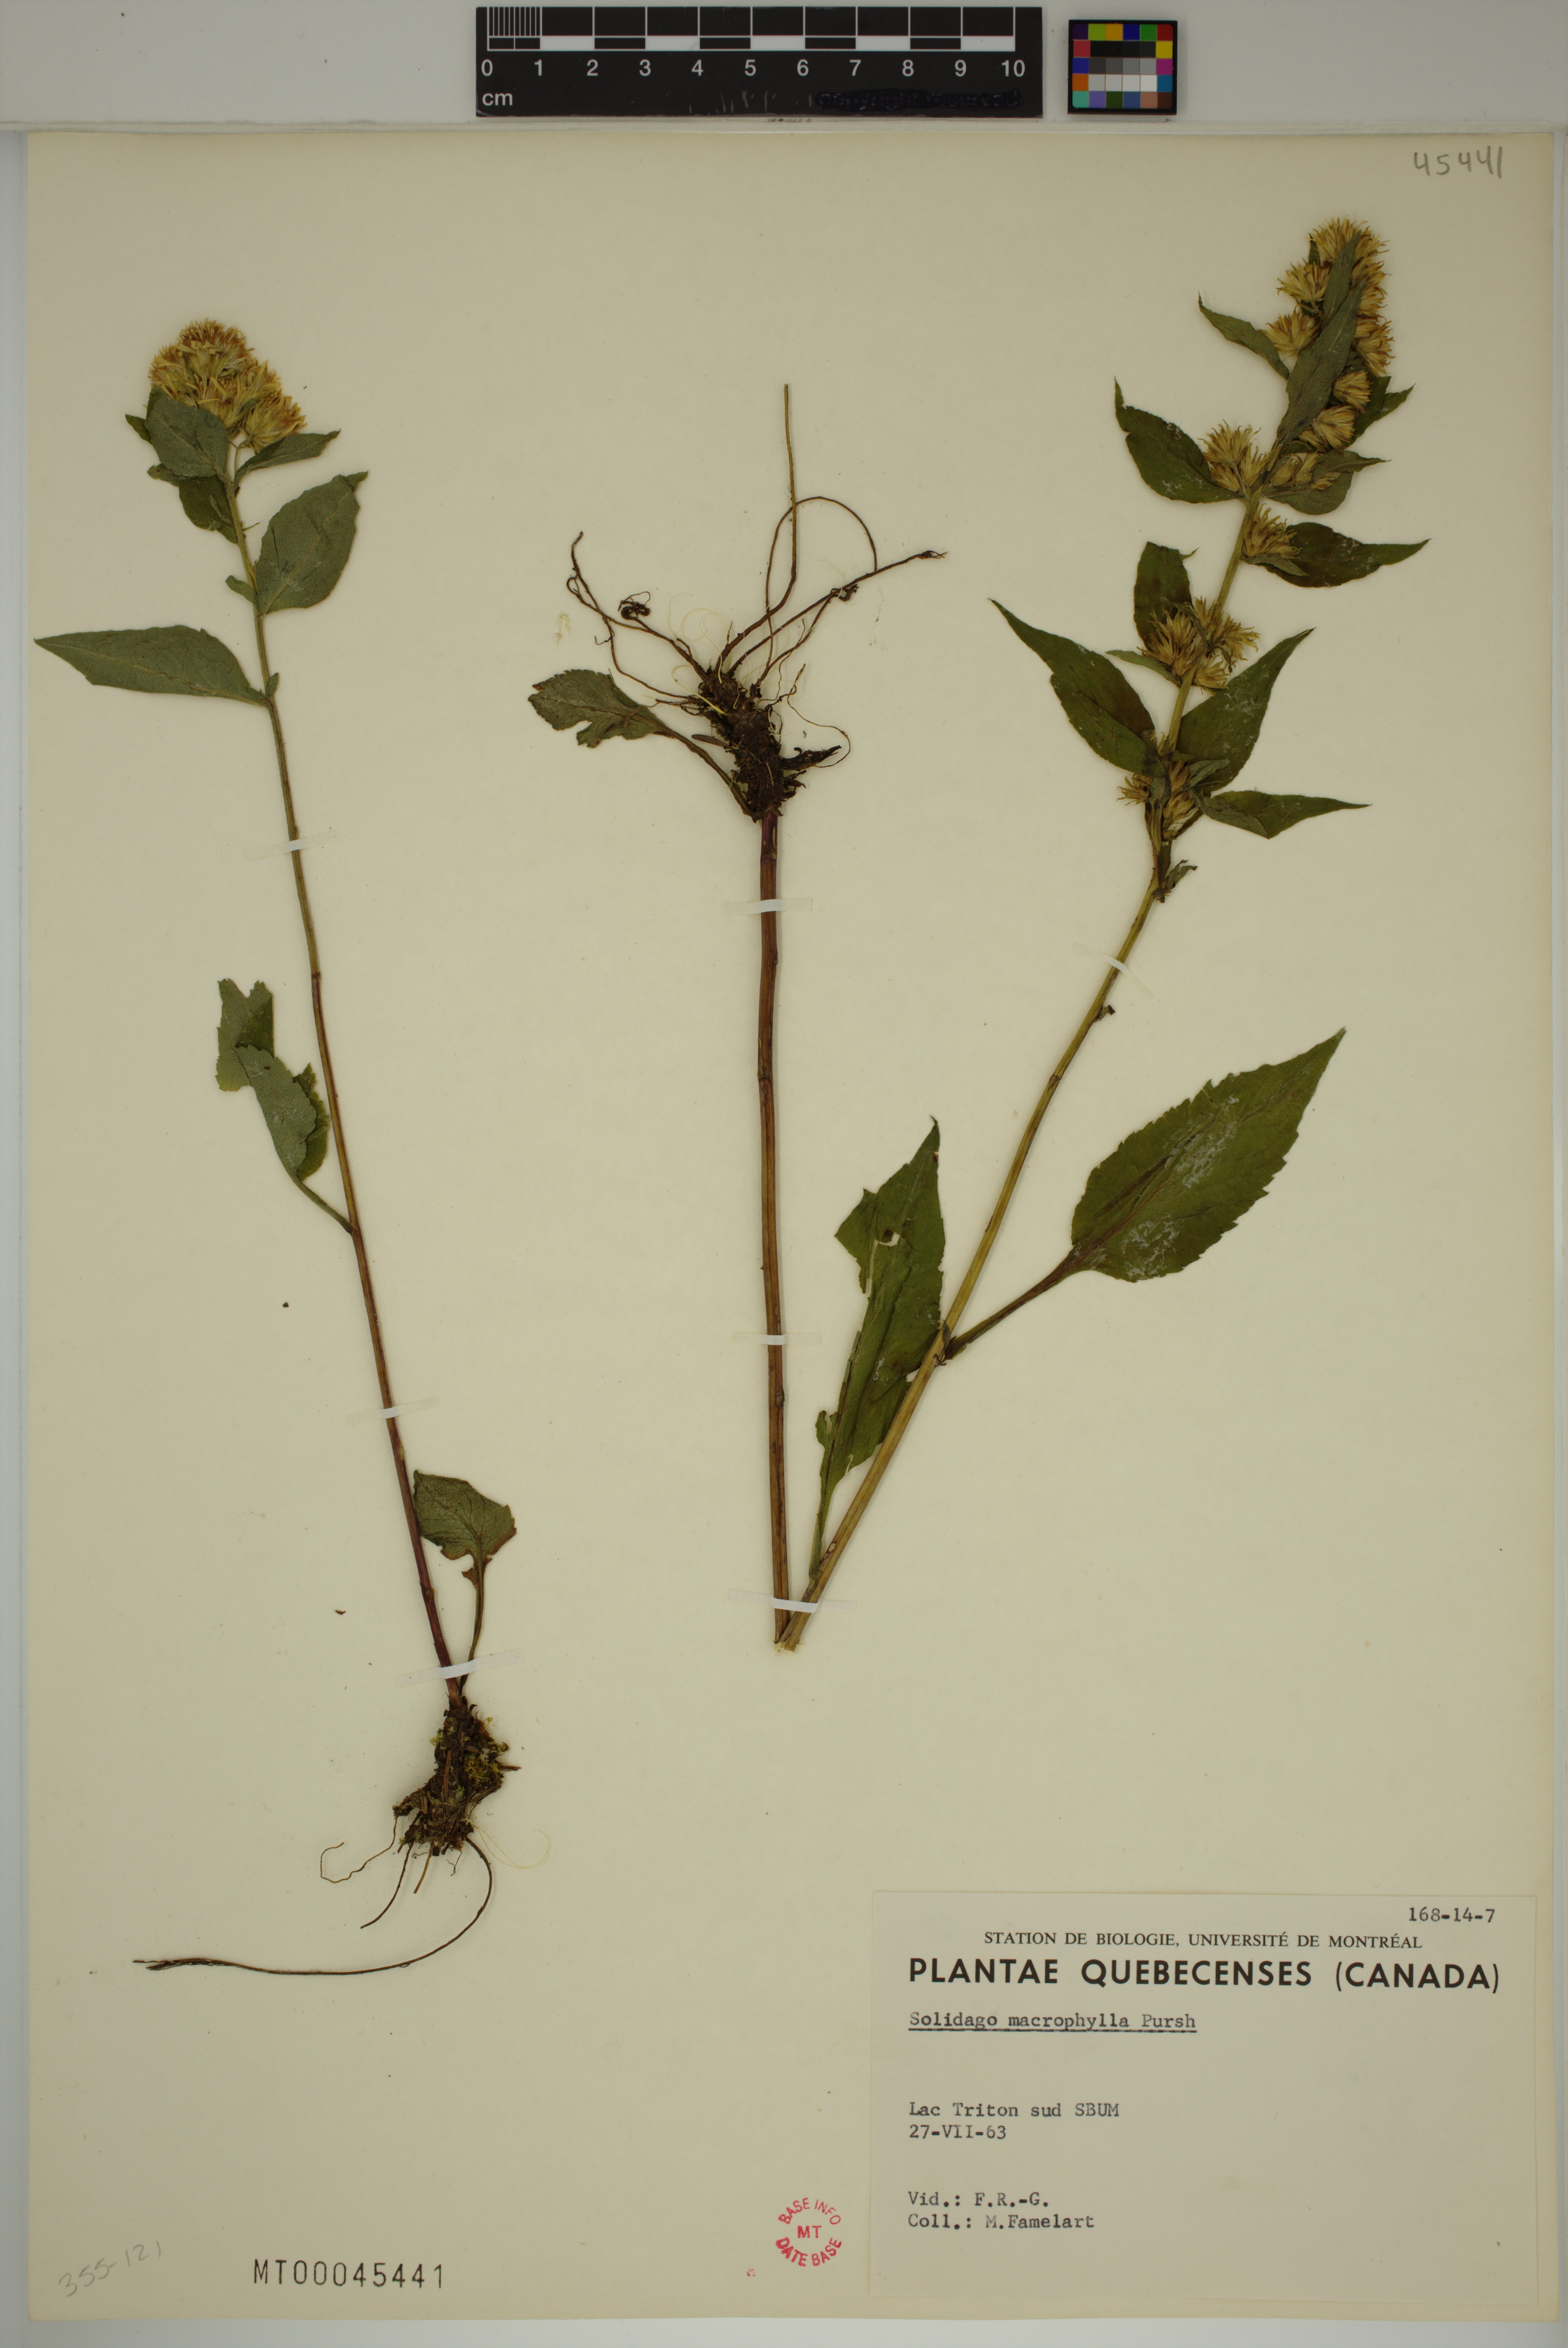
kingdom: Plantae
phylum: Tracheophyta
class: Magnoliopsida
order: Asterales
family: Asteraceae
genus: Solidago
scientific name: Solidago macrophylla
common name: Large-leaved goldenrod
